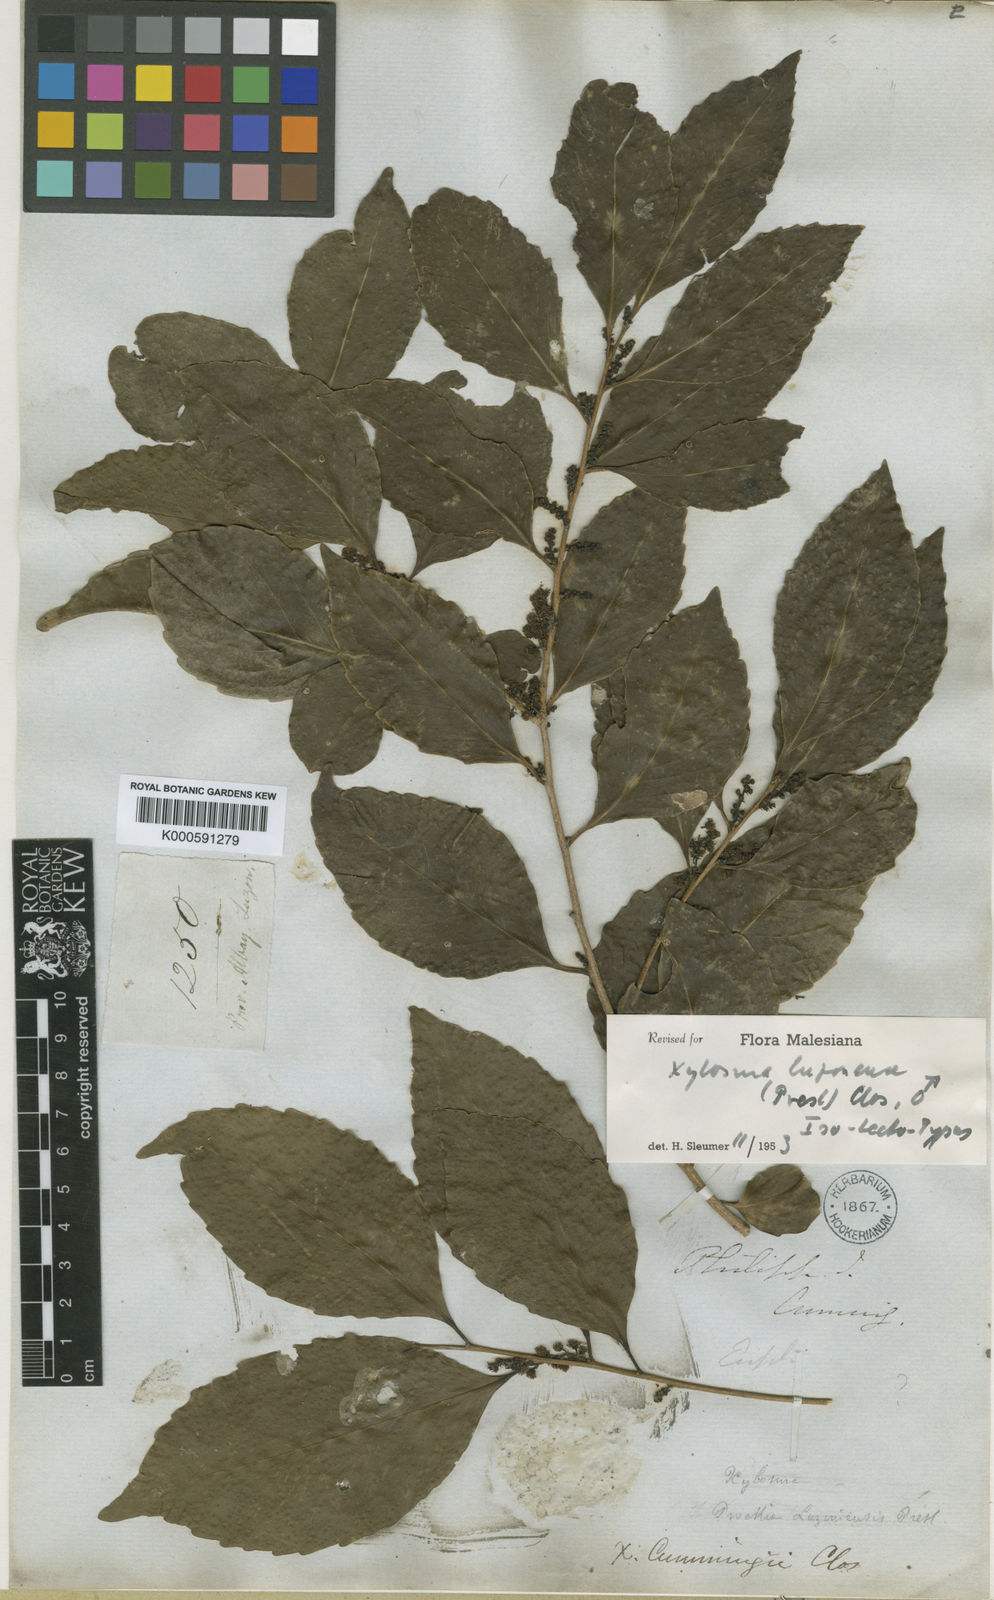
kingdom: Plantae
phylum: Tracheophyta
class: Magnoliopsida
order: Malpighiales
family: Salicaceae
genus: Xylosma
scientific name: Xylosma luzonensis
